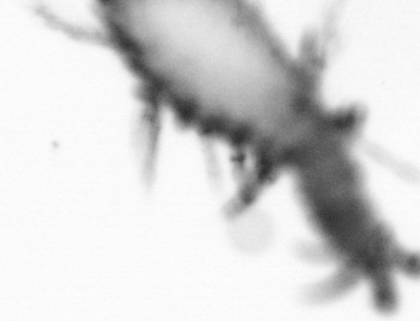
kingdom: Animalia
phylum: Annelida
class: Polychaeta
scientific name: Polychaeta
